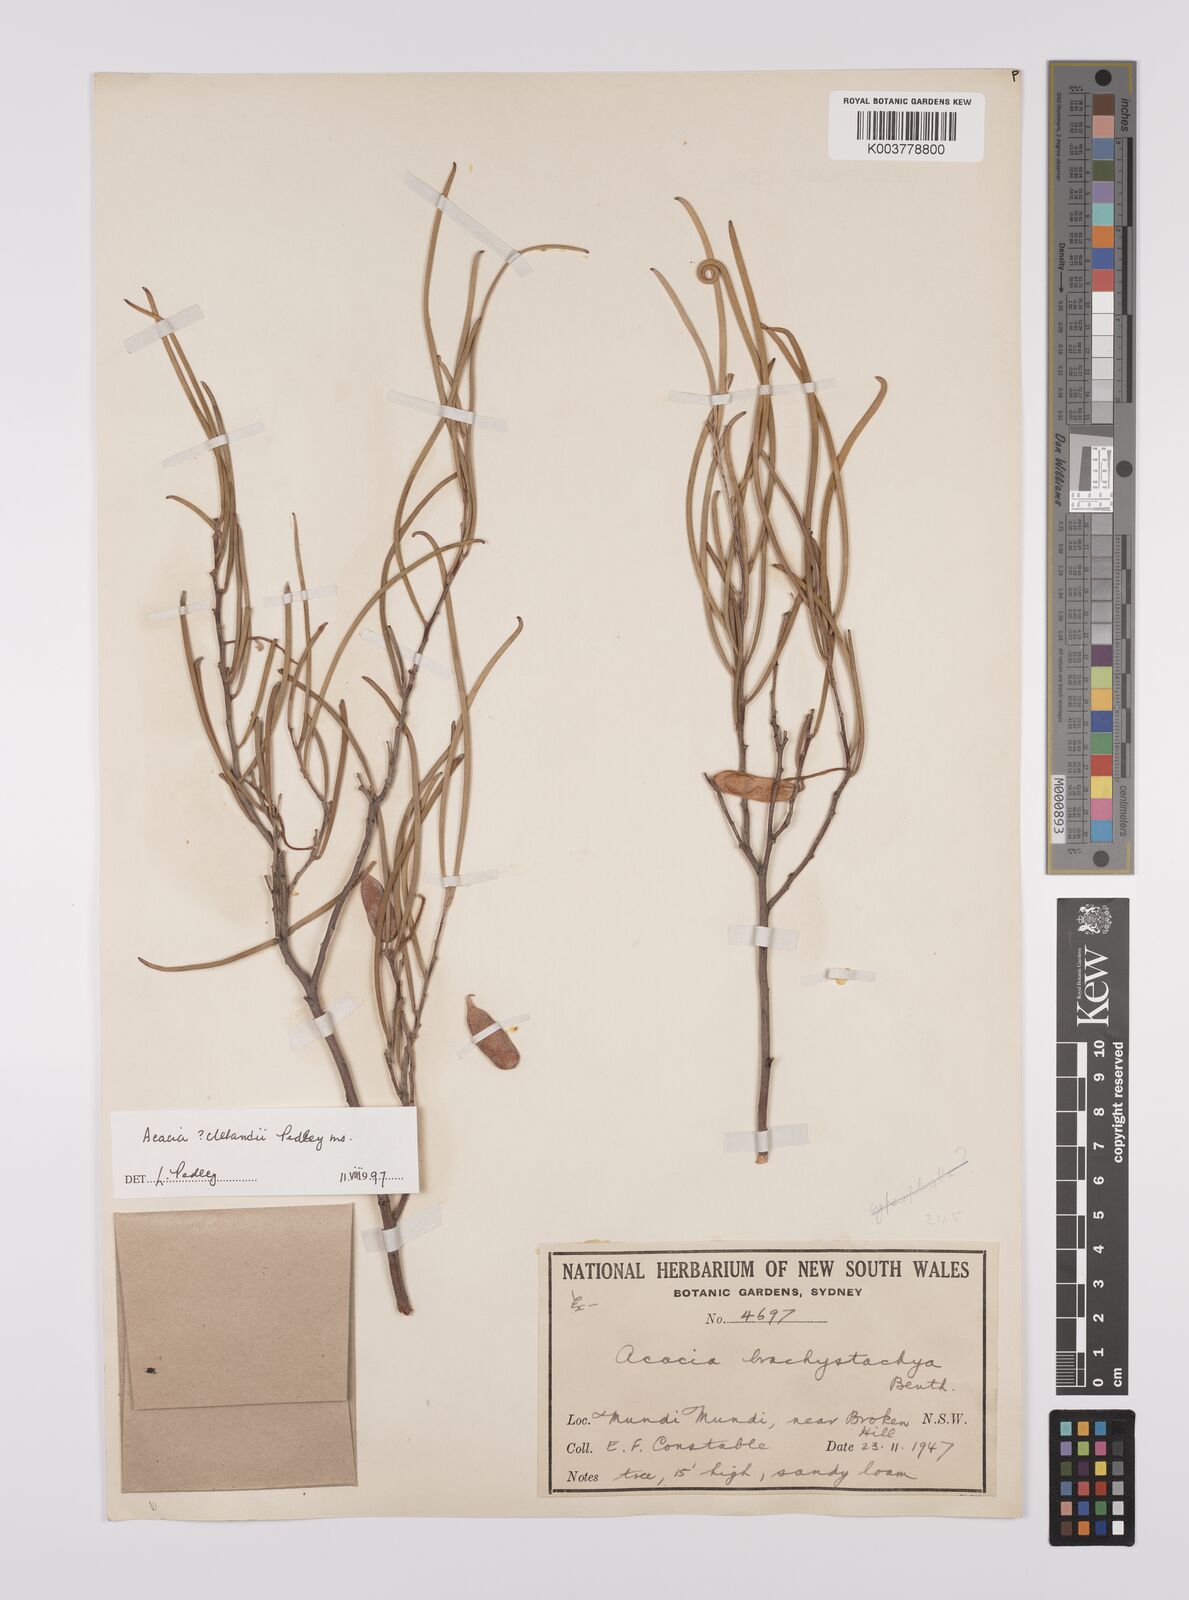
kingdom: Plantae
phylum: Tracheophyta
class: Magnoliopsida
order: Fabales
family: Fabaceae
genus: Acacia
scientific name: Acacia clelandii
